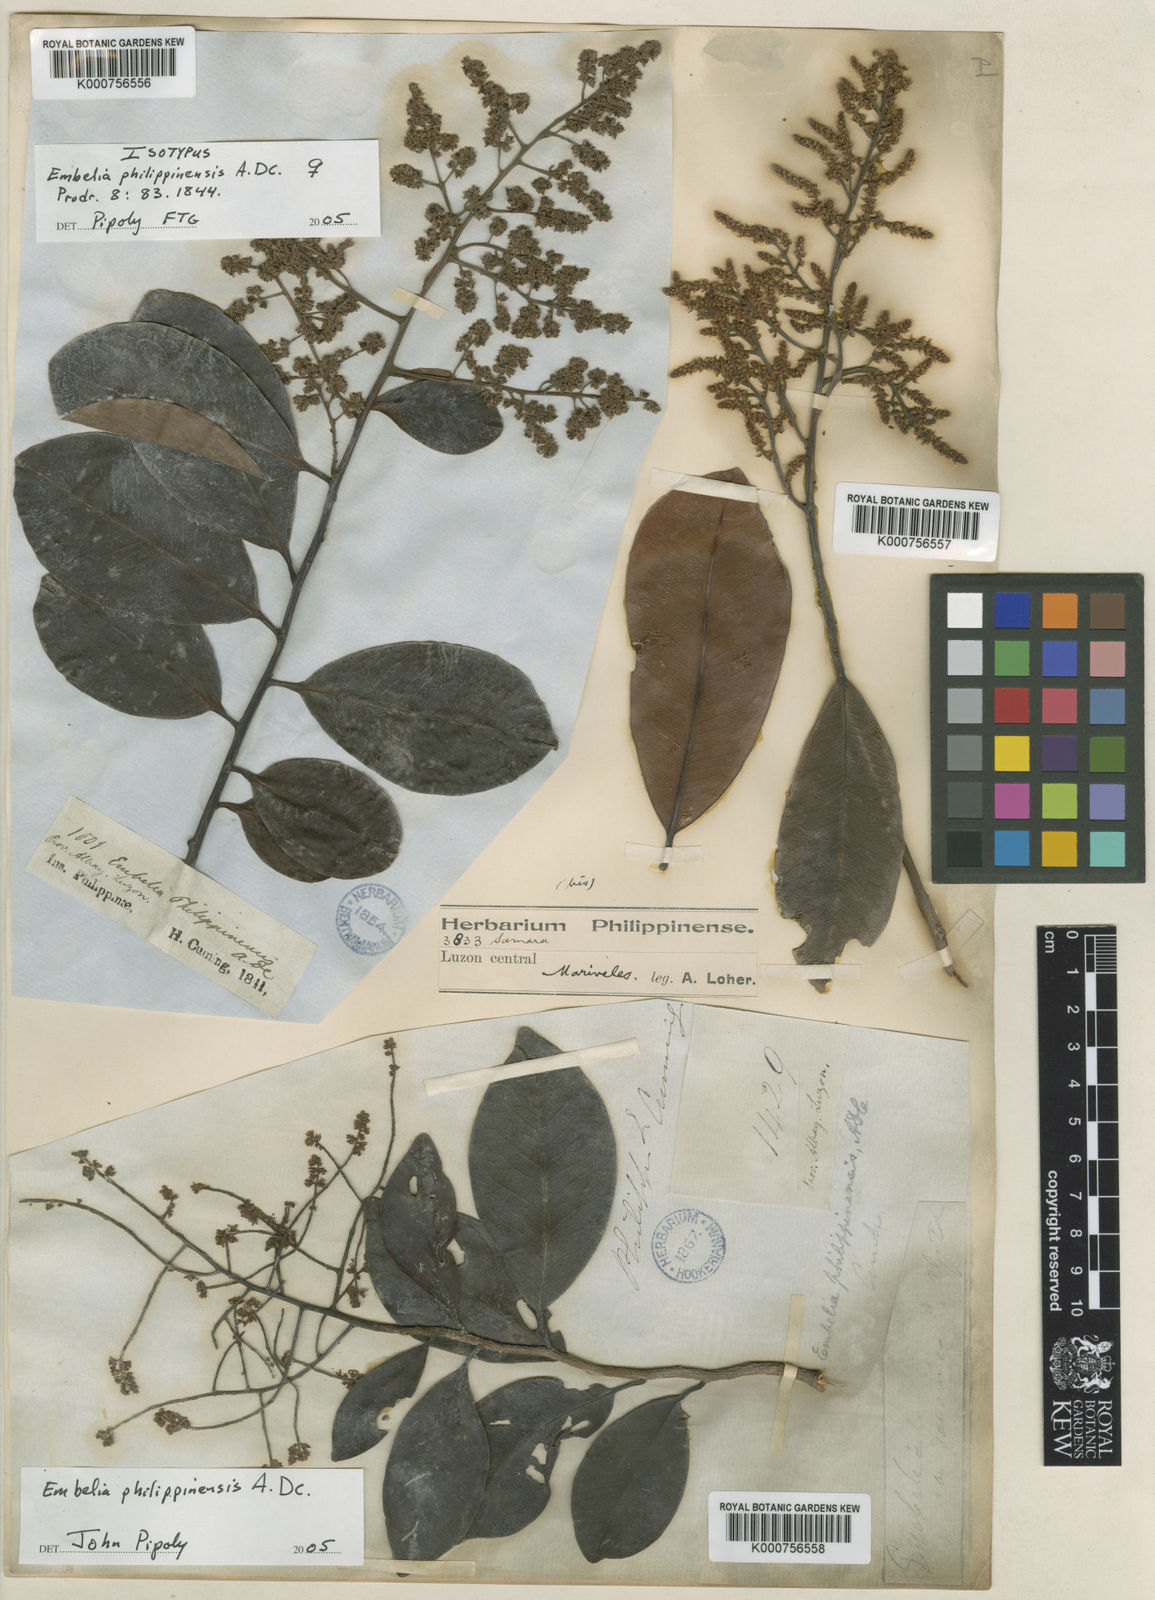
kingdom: Plantae
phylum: Tracheophyta
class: Magnoliopsida
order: Ericales
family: Primulaceae
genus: Embelia
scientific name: Embelia philippinensis
